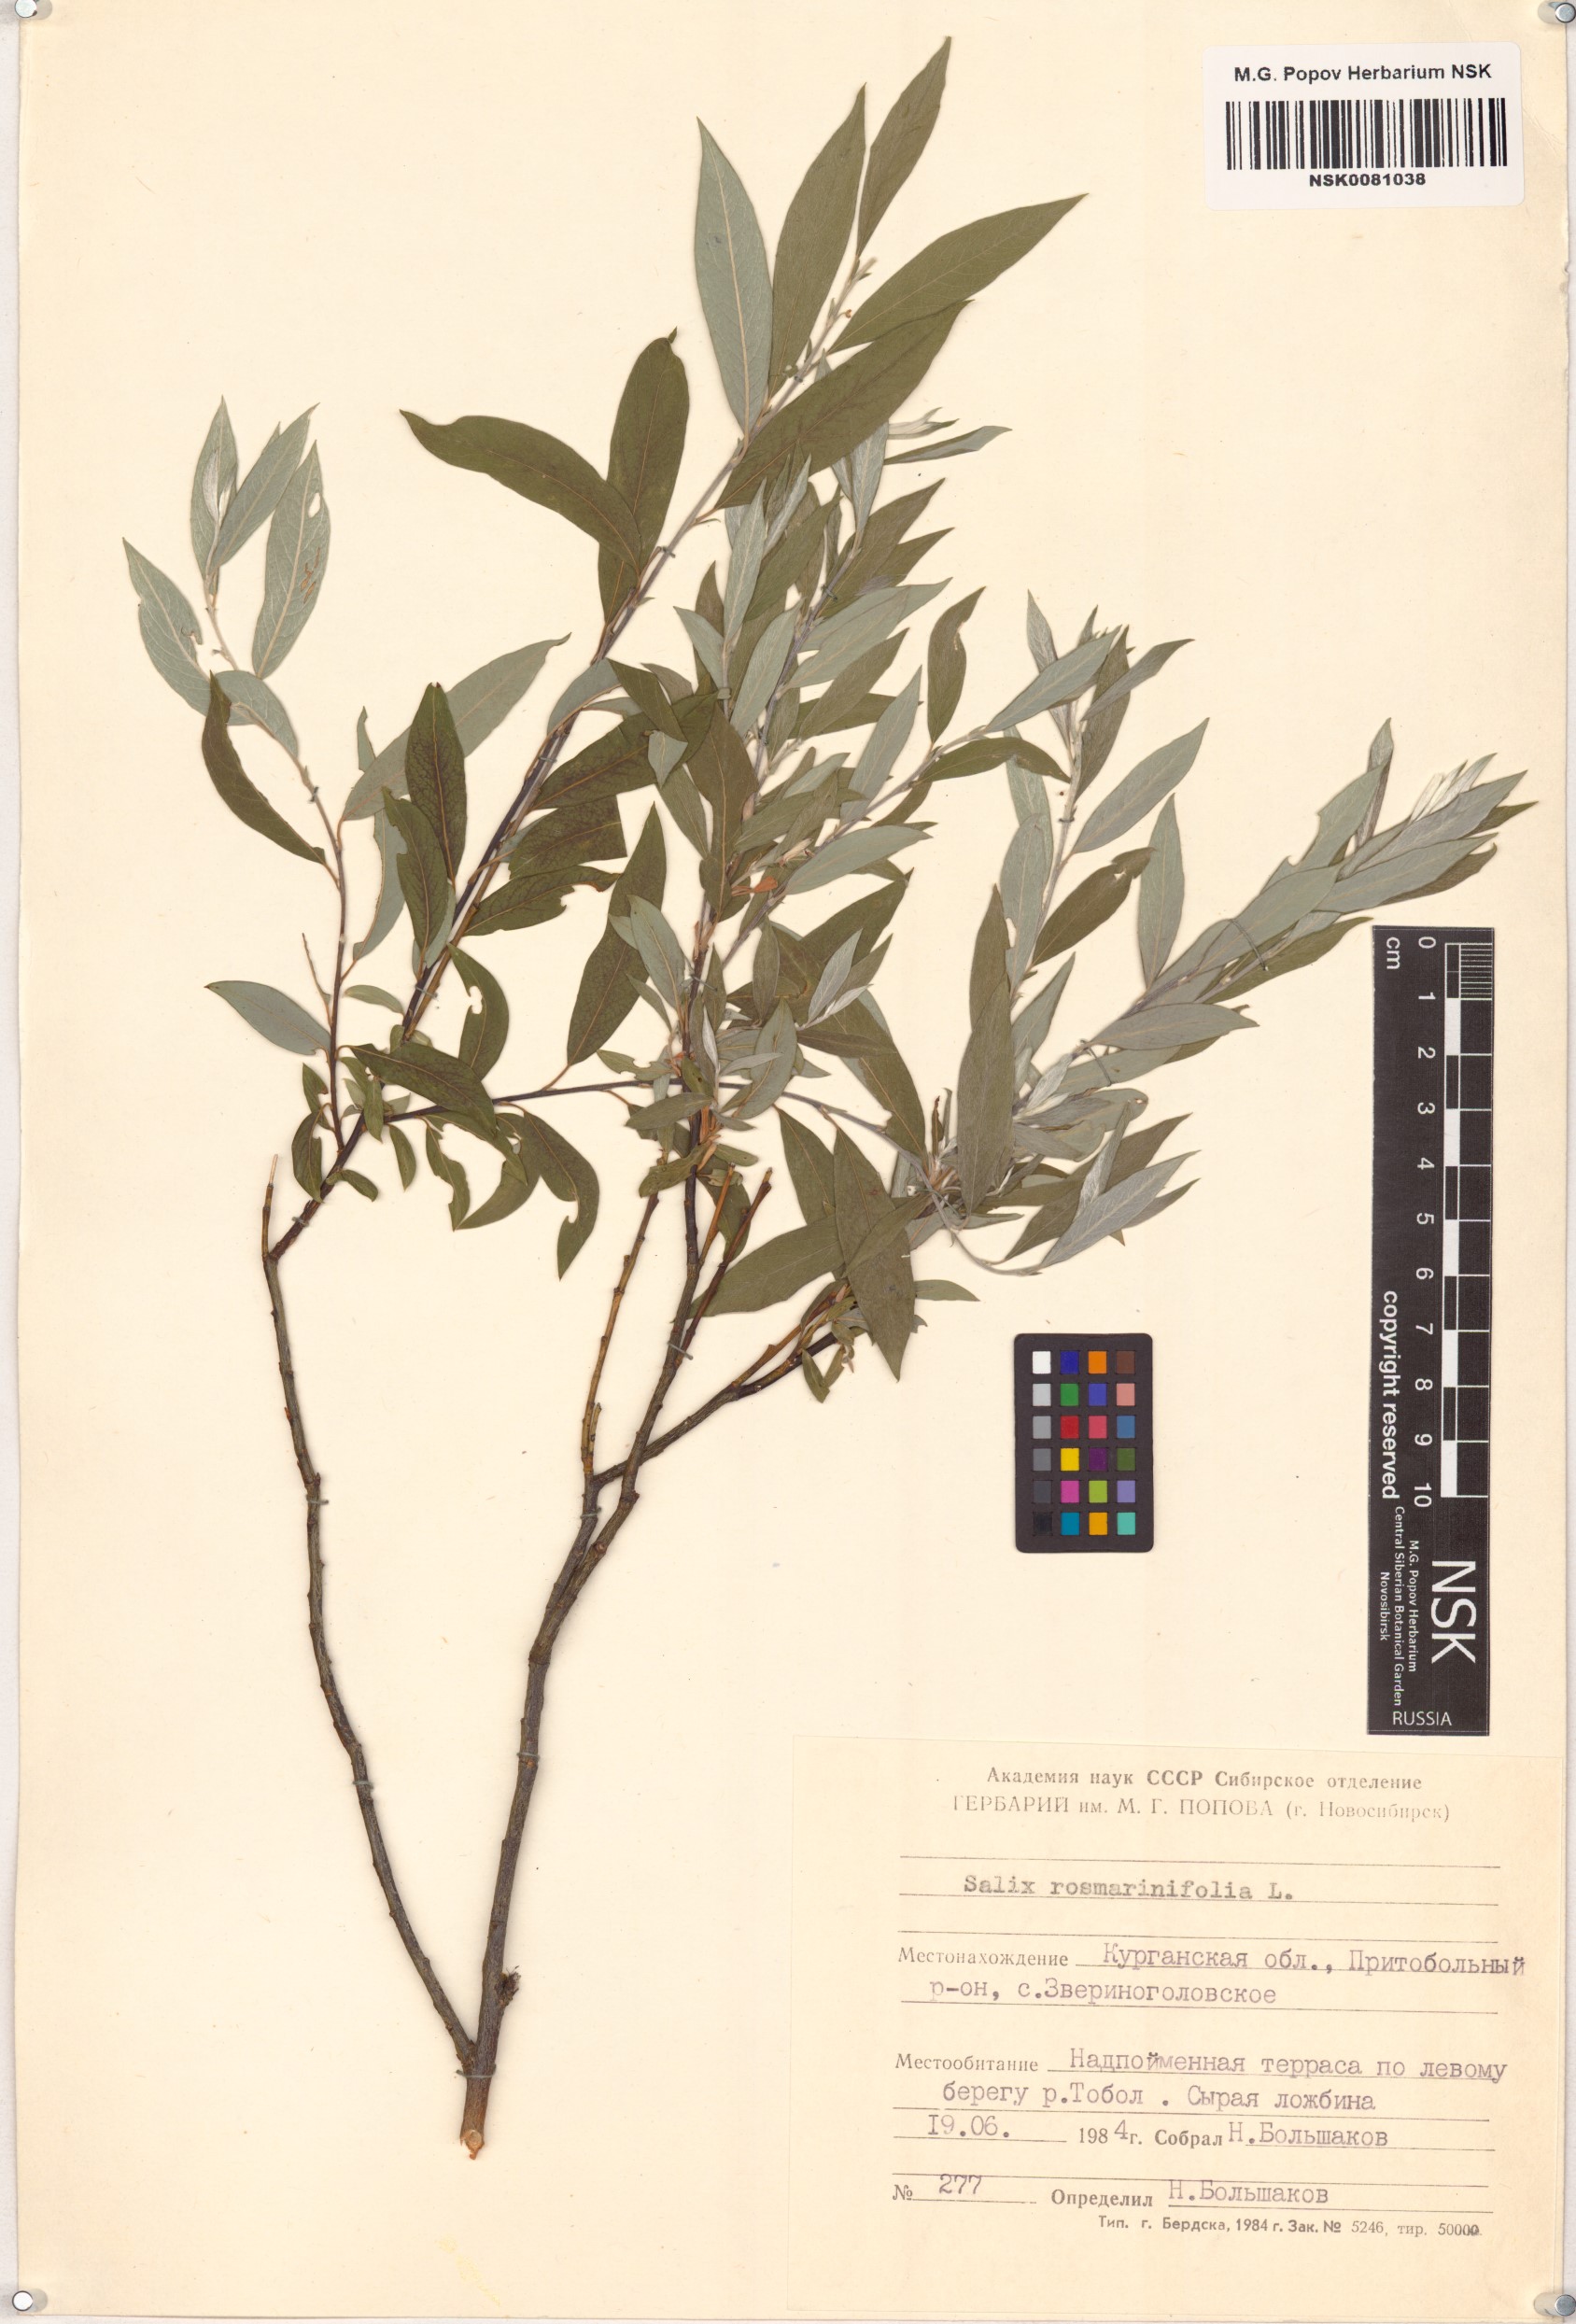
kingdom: Plantae
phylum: Tracheophyta
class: Magnoliopsida
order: Malpighiales
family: Salicaceae
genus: Salix
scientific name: Salix rosmarinifolia
